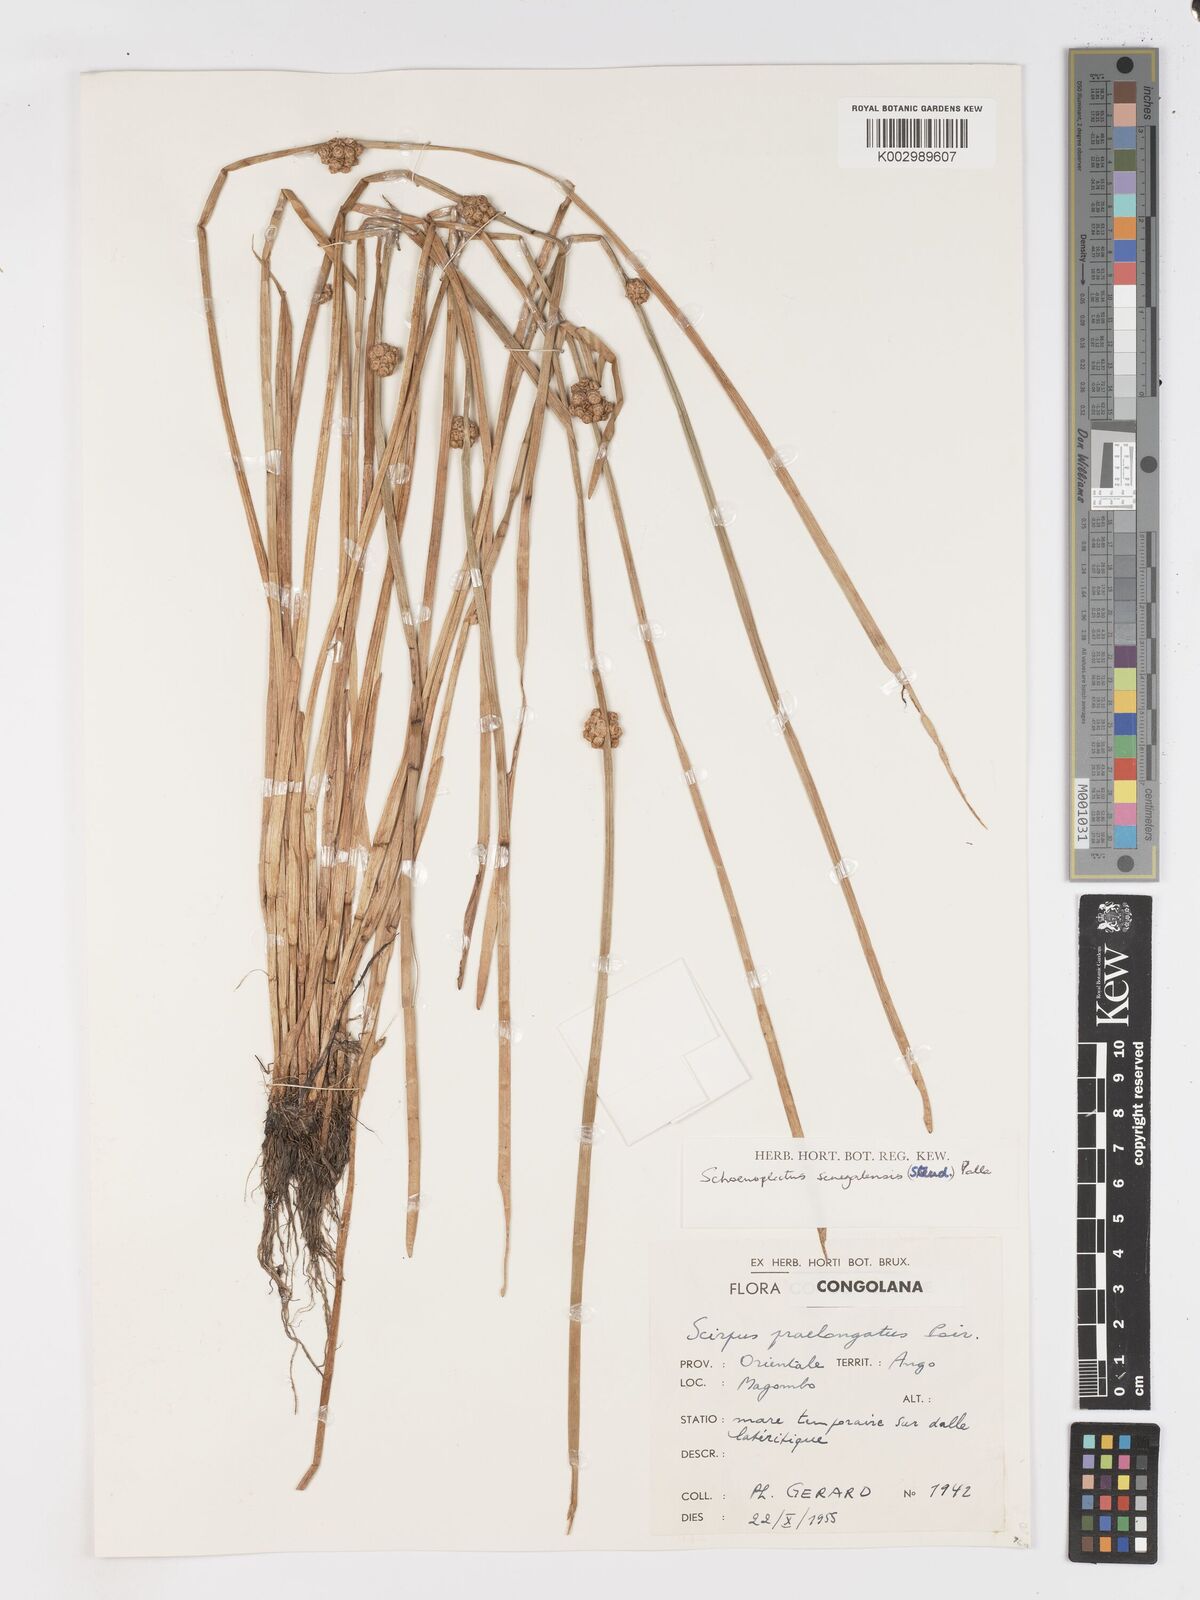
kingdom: Plantae
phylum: Tracheophyta
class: Liliopsida
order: Poales
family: Cyperaceae
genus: Schoenoplectiella
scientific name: Schoenoplectiella senegalensis
